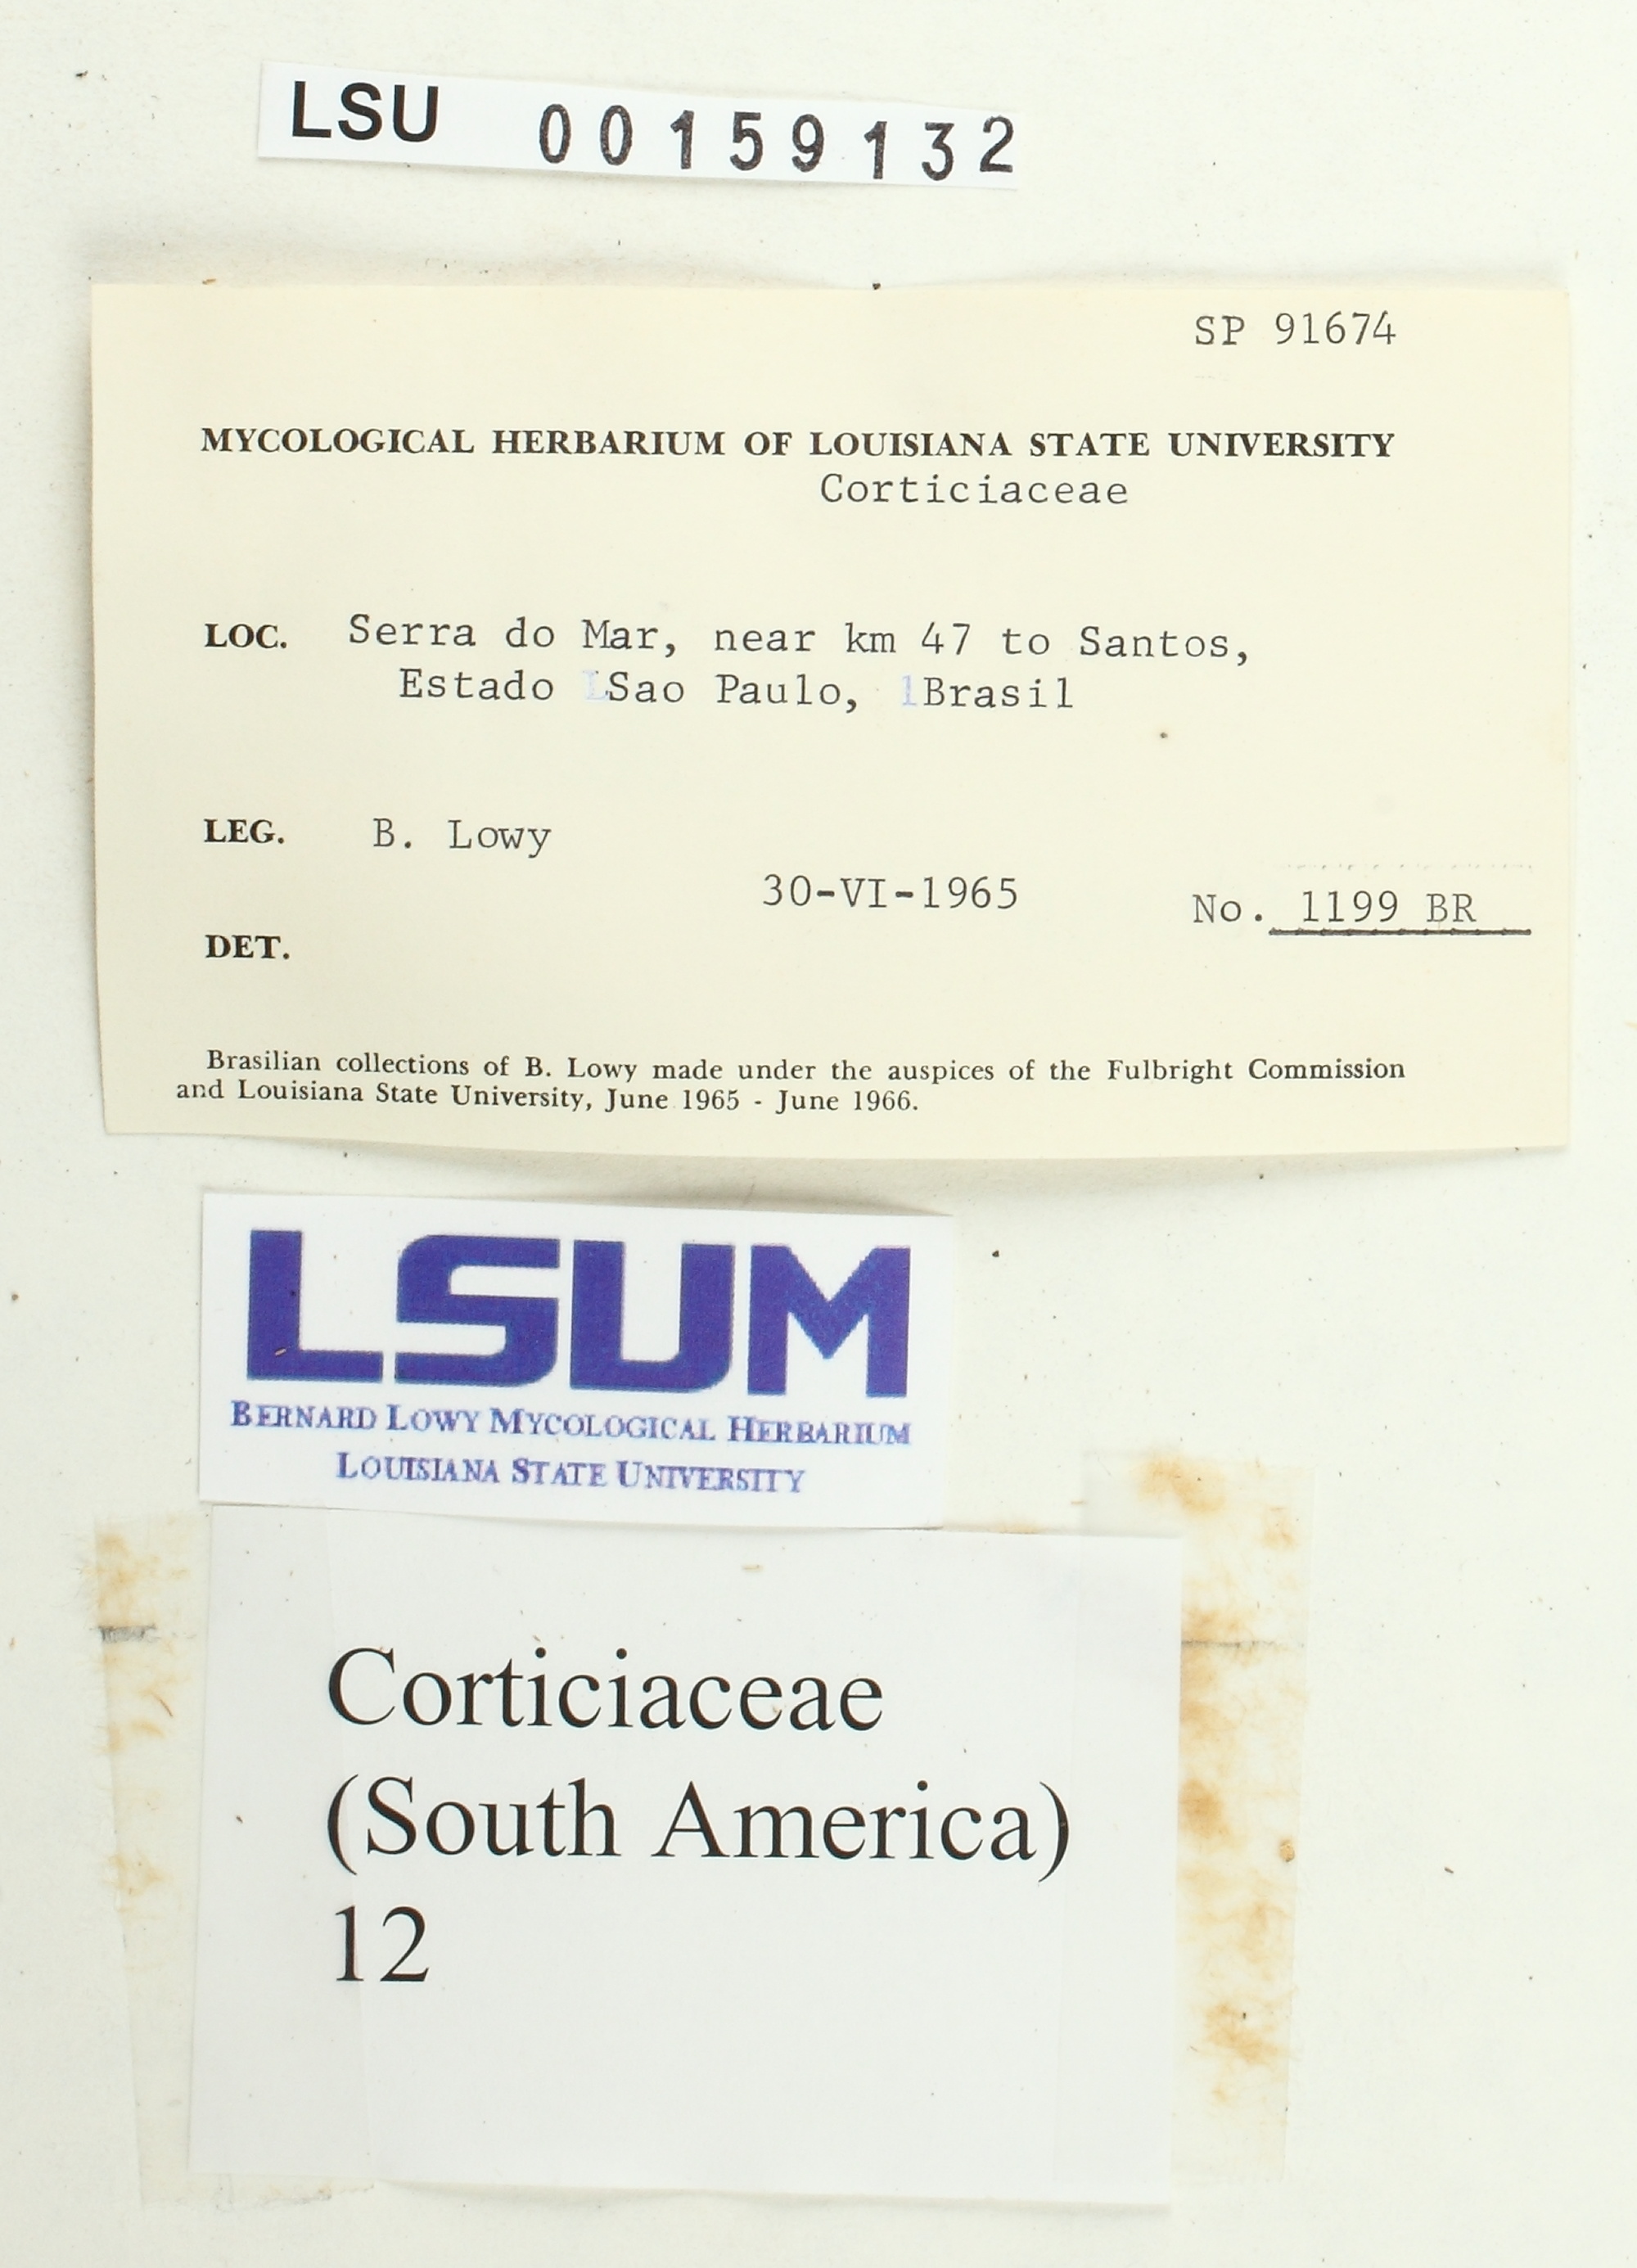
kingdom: Fungi
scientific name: Fungi
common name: Fungi
